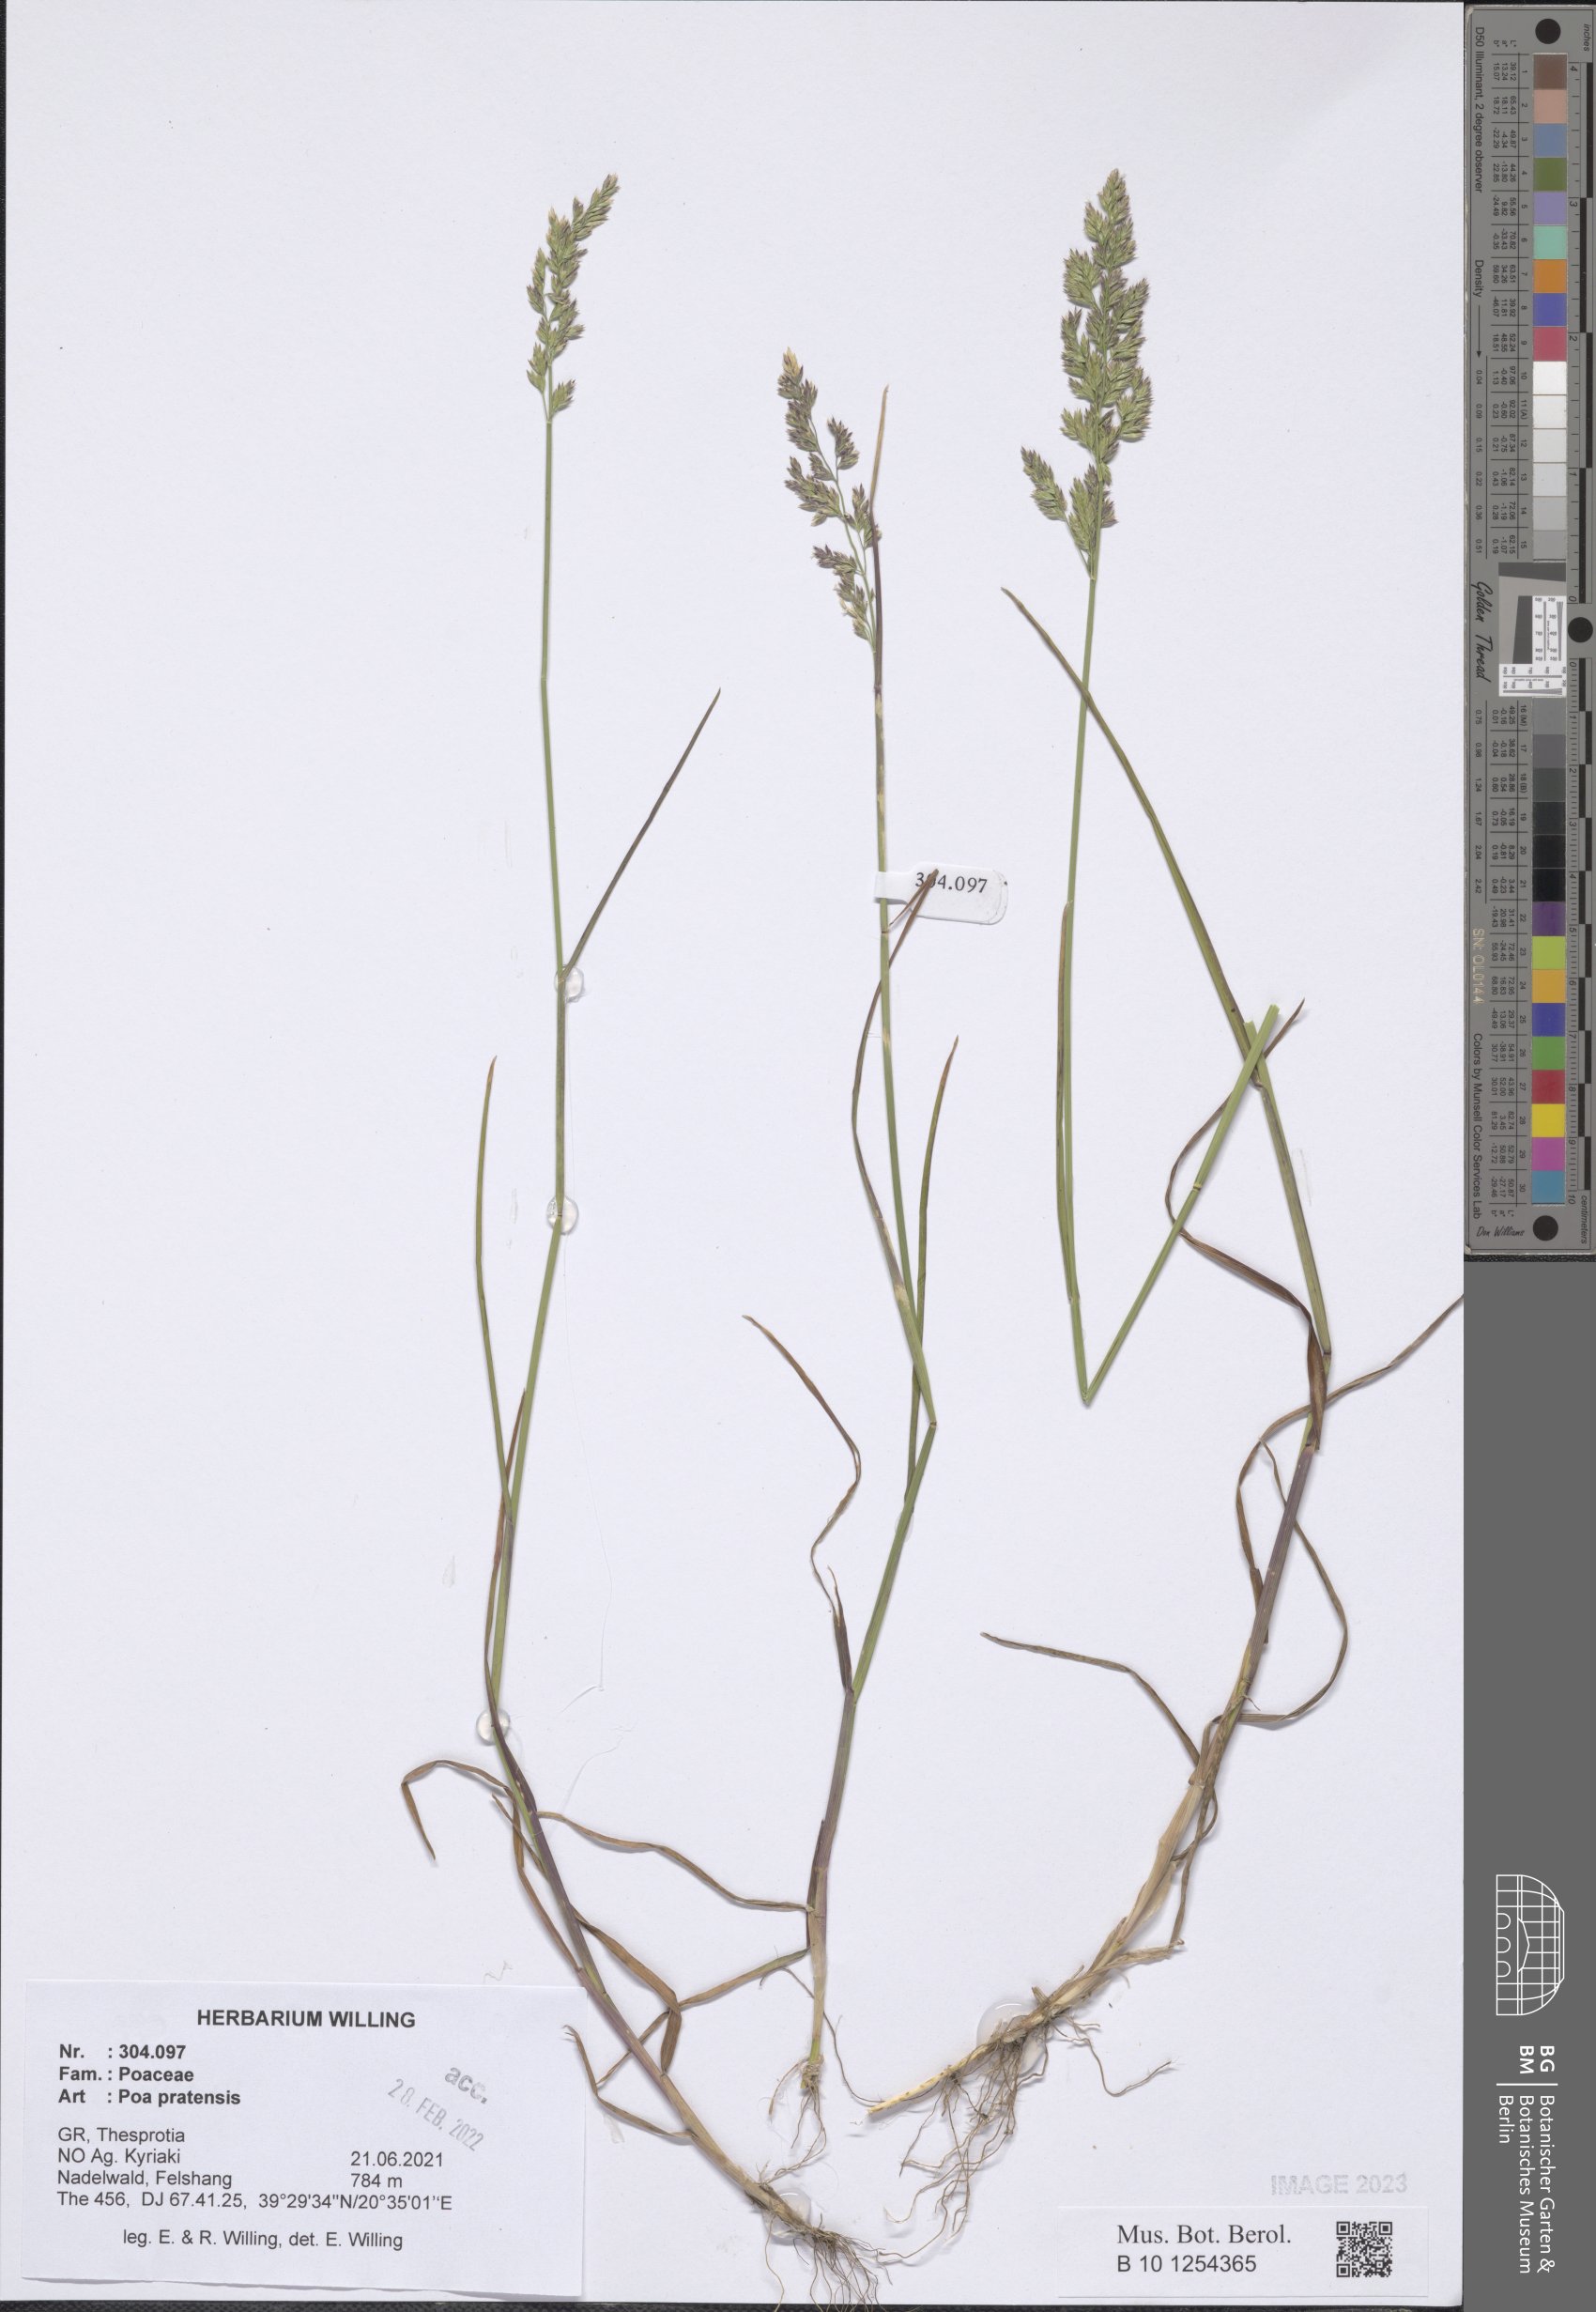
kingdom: Plantae
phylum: Tracheophyta
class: Liliopsida
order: Poales
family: Poaceae
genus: Poa
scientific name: Poa pratensis
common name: Kentucky bluegrass
